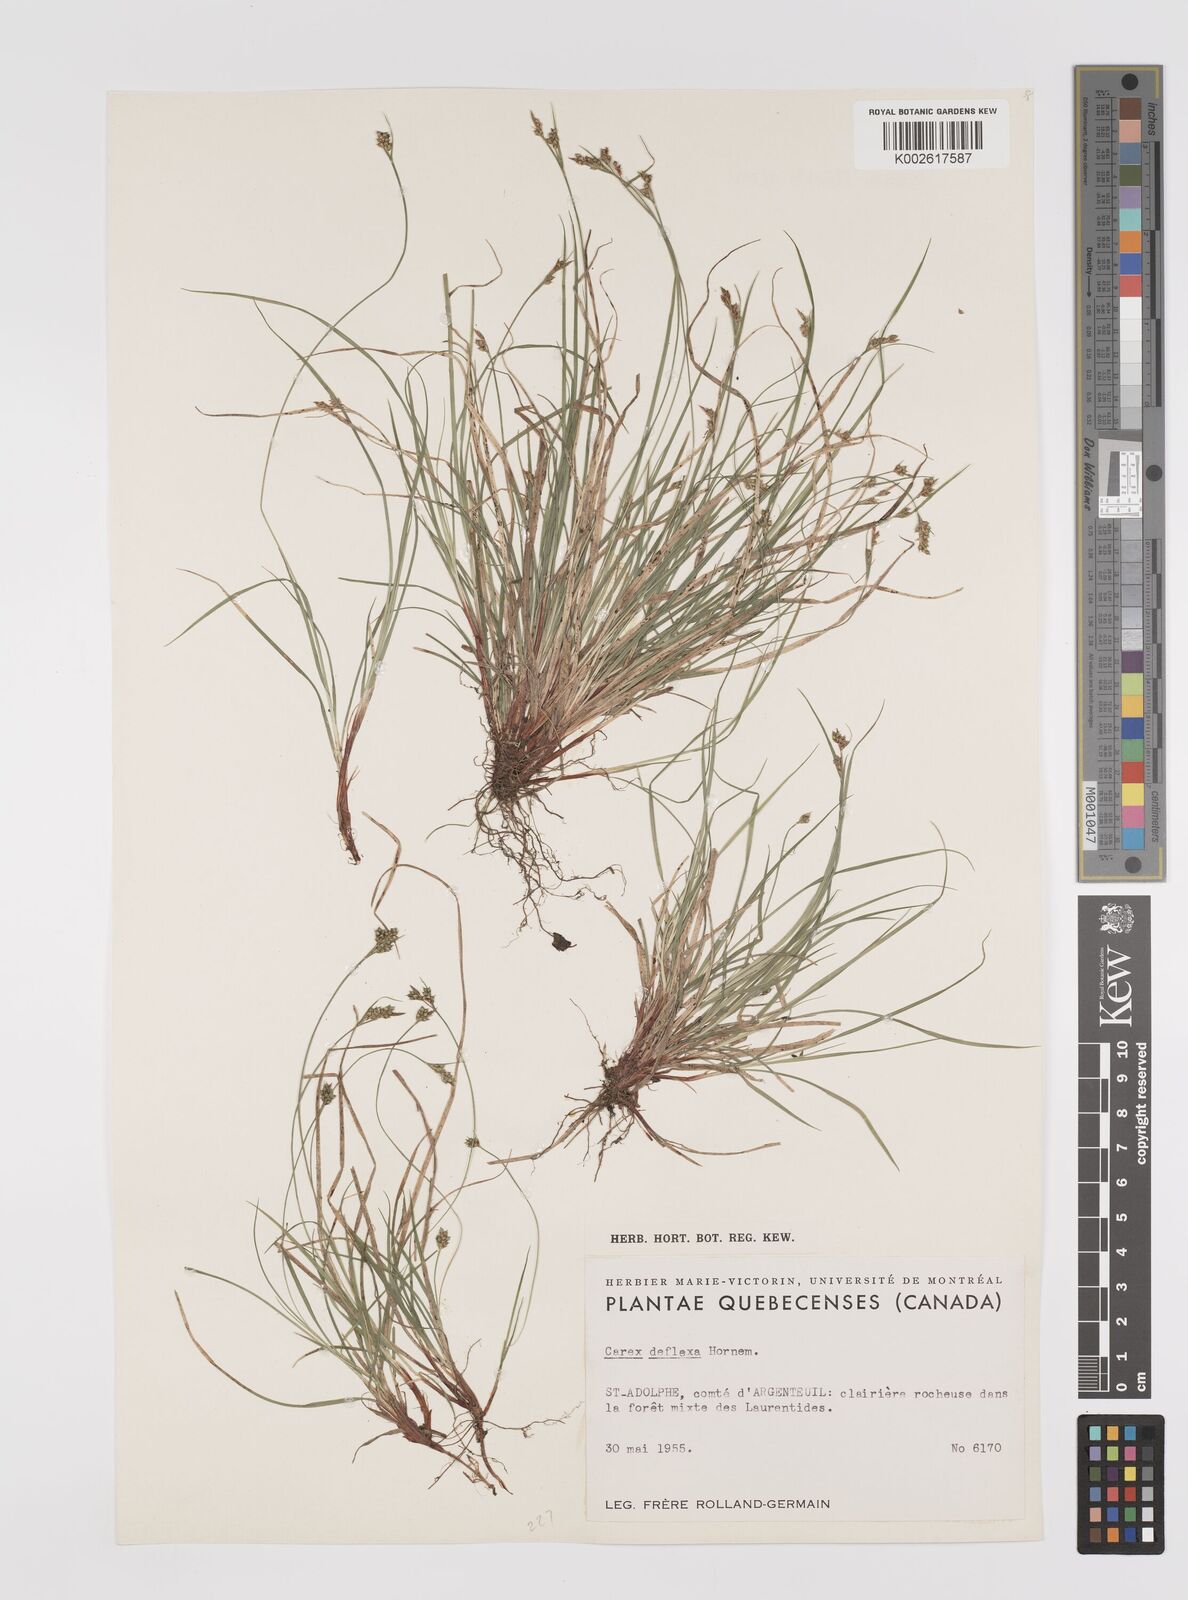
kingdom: Plantae
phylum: Tracheophyta
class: Liliopsida
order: Poales
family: Cyperaceae
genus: Carex
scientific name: Carex deflexa
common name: Bent northern sedge
